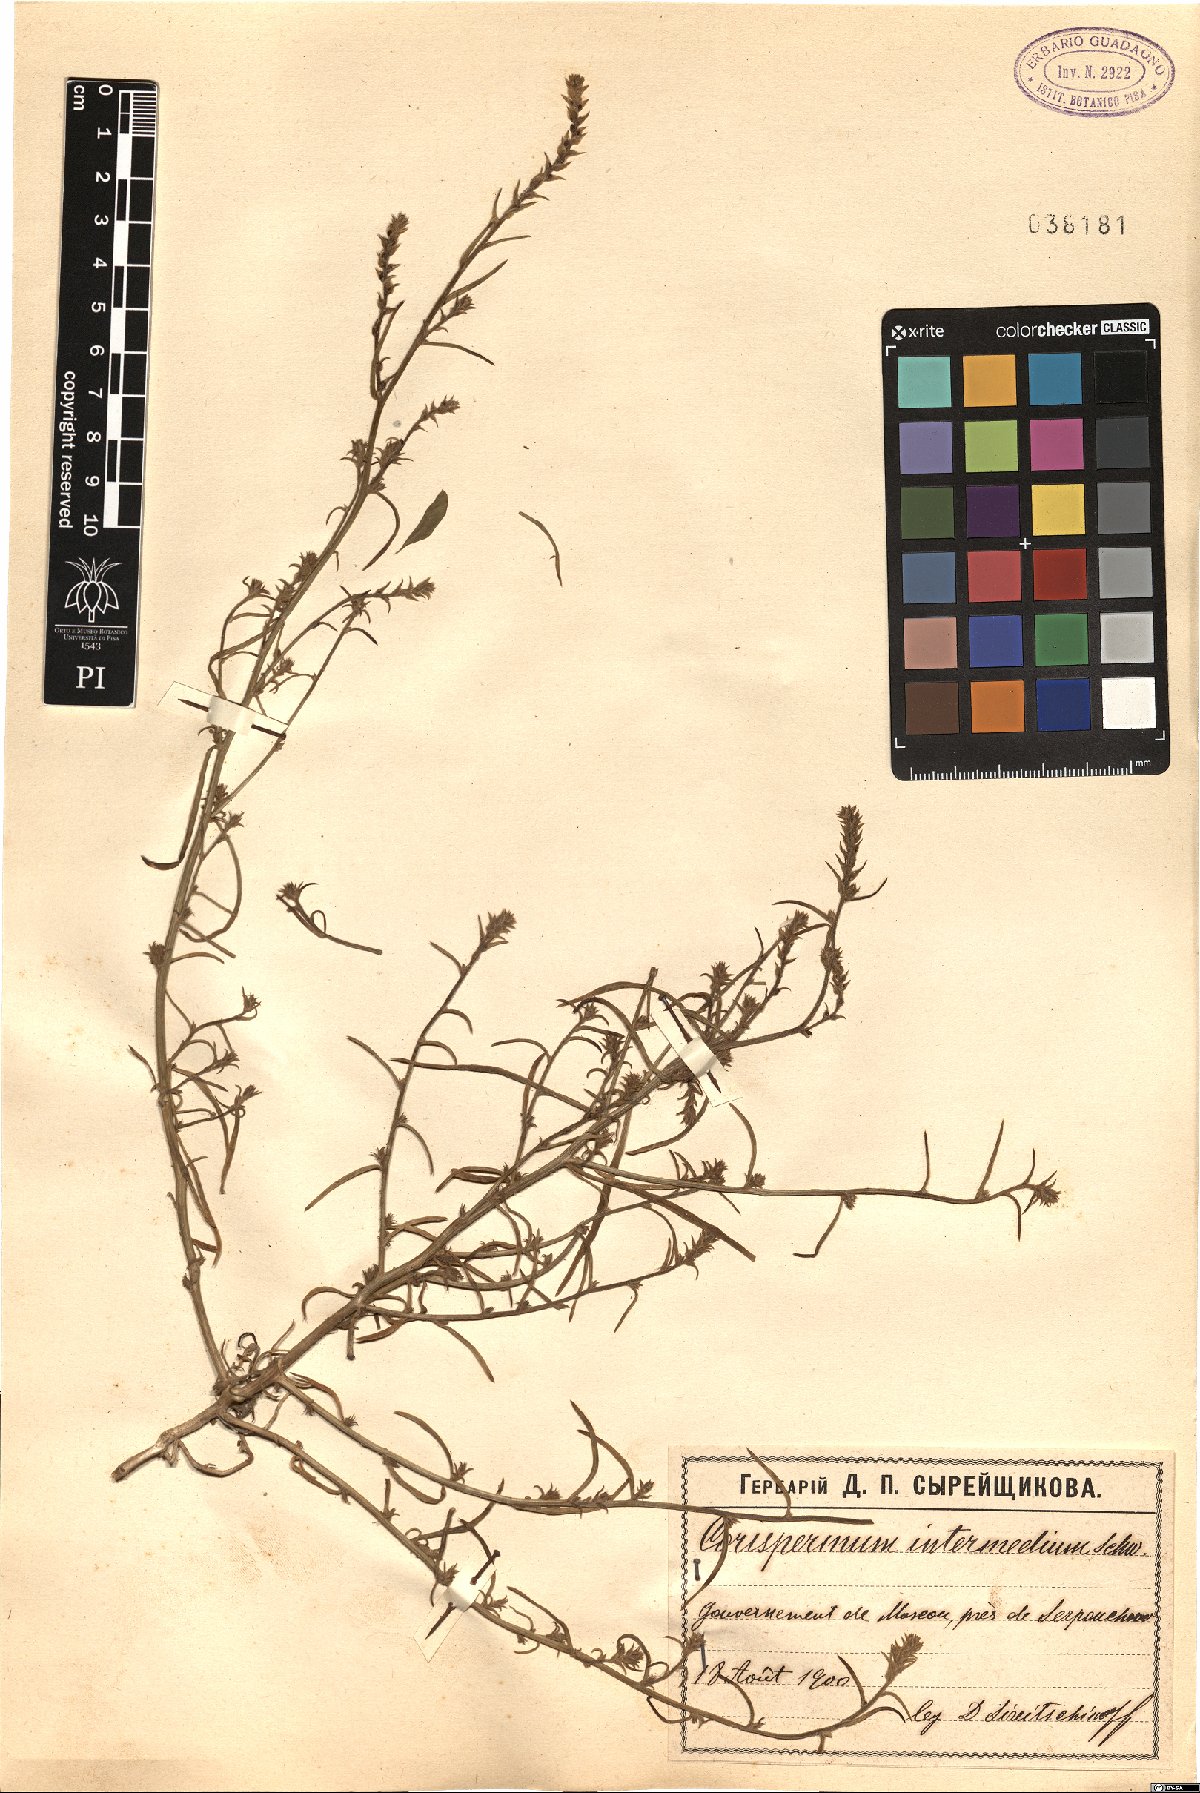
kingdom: Plantae
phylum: Tracheophyta
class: Magnoliopsida
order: Caryophyllales
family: Amaranthaceae
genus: Corispermum
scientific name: Corispermum intermedium
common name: Hyssop-leaved tickseed
